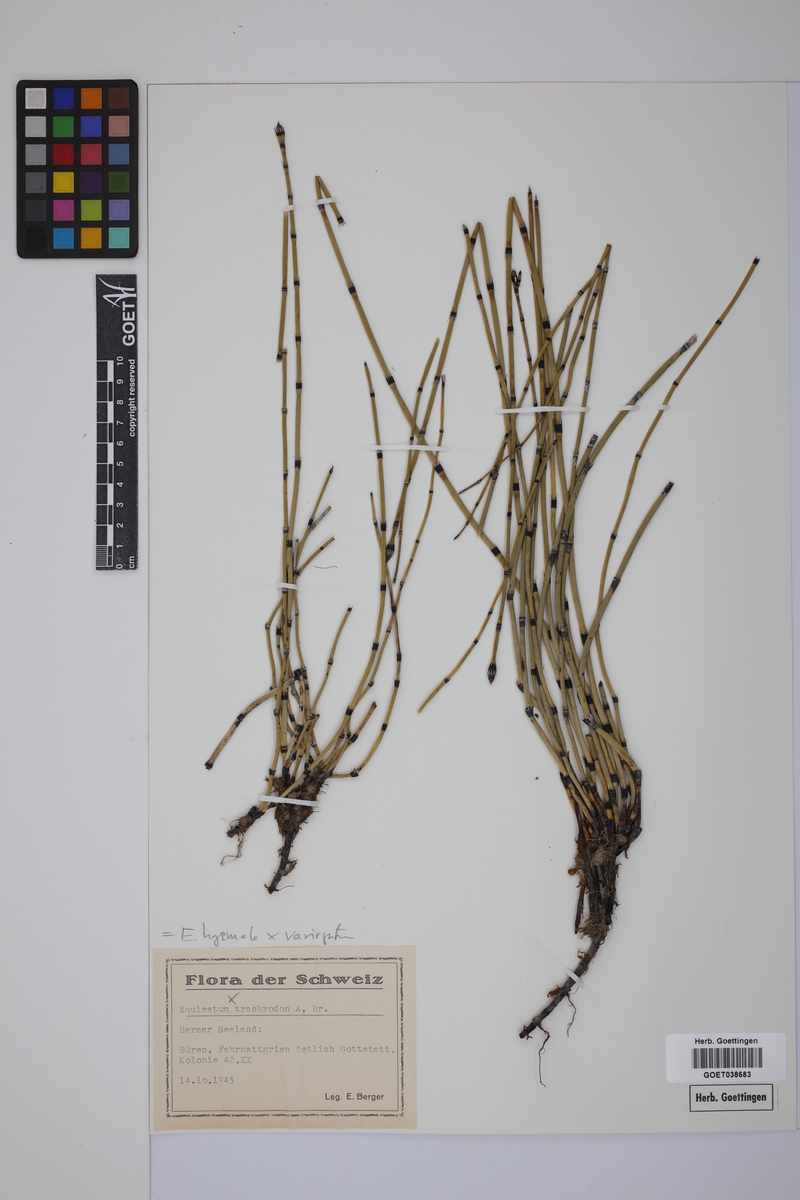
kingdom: Plantae
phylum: Tracheophyta
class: Polypodiopsida
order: Equisetales
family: Equisetaceae
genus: Equisetum
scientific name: Equisetum hyemale
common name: Rough horsetail
